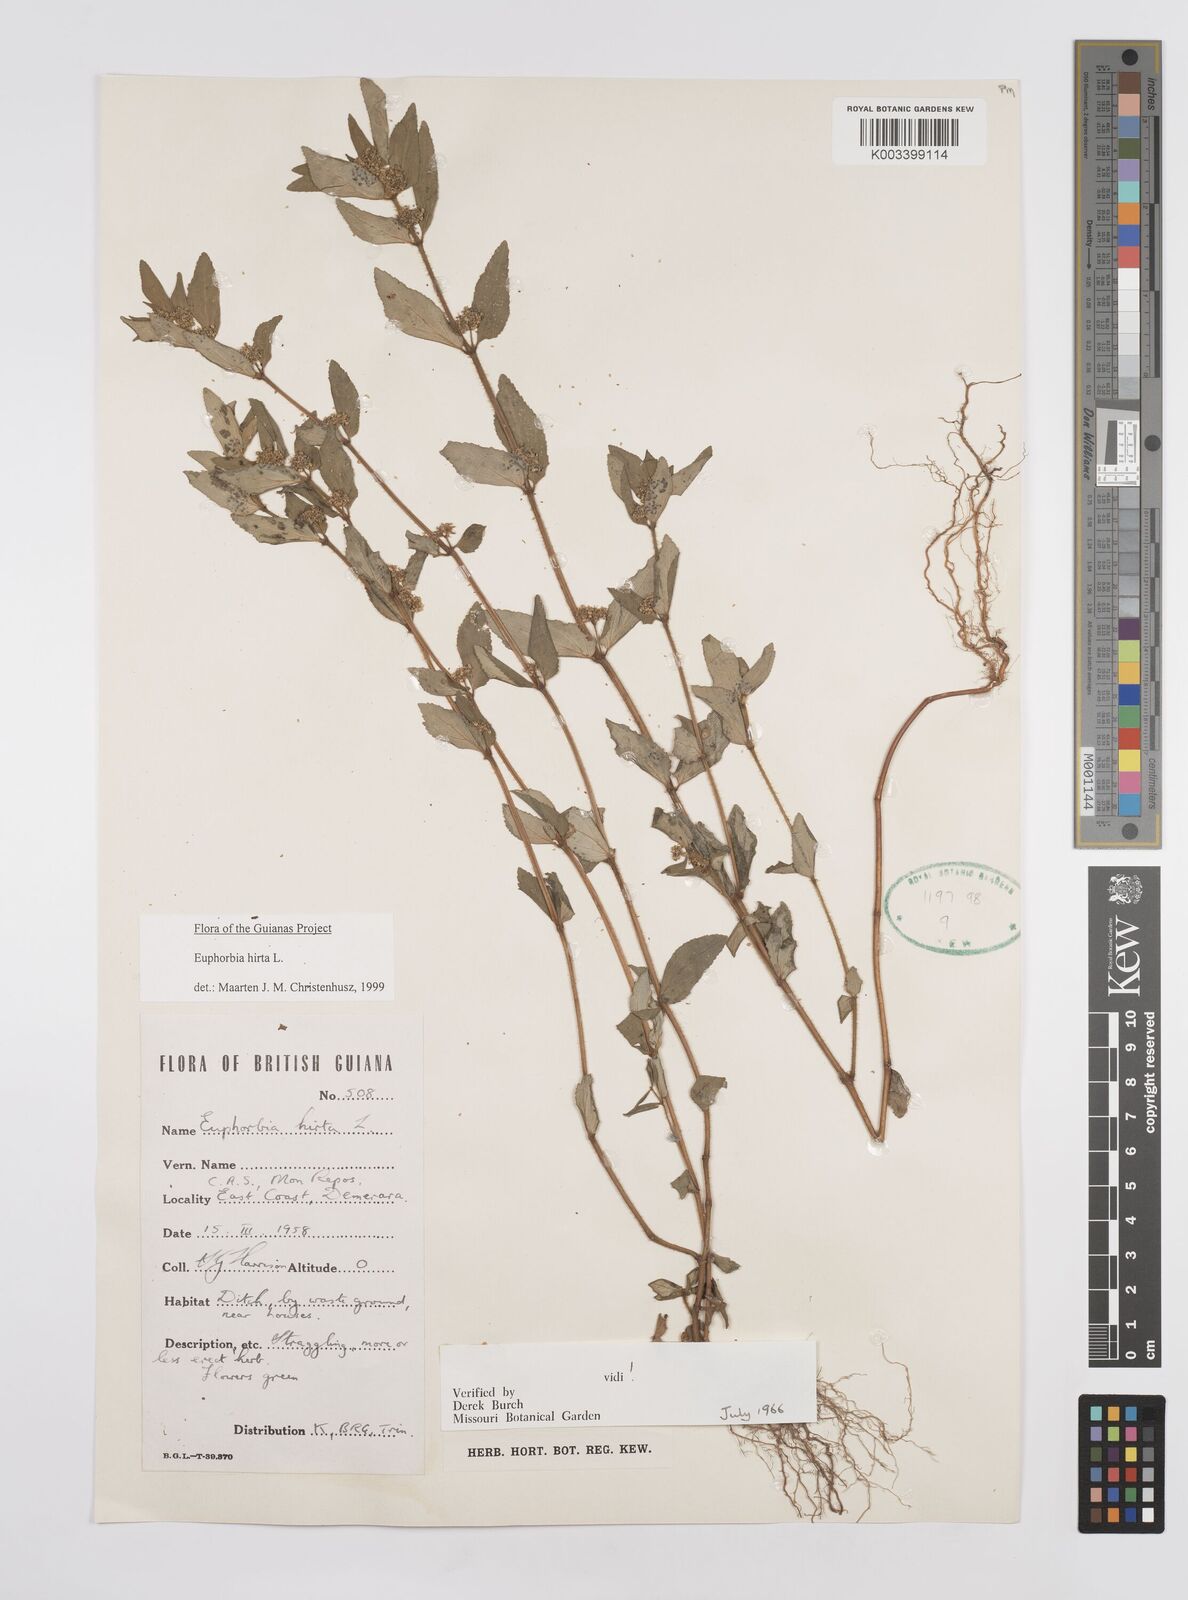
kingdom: Plantae
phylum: Tracheophyta
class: Magnoliopsida
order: Malpighiales
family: Euphorbiaceae
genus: Euphorbia
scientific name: Euphorbia hirta
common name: Pillpod sandmat
